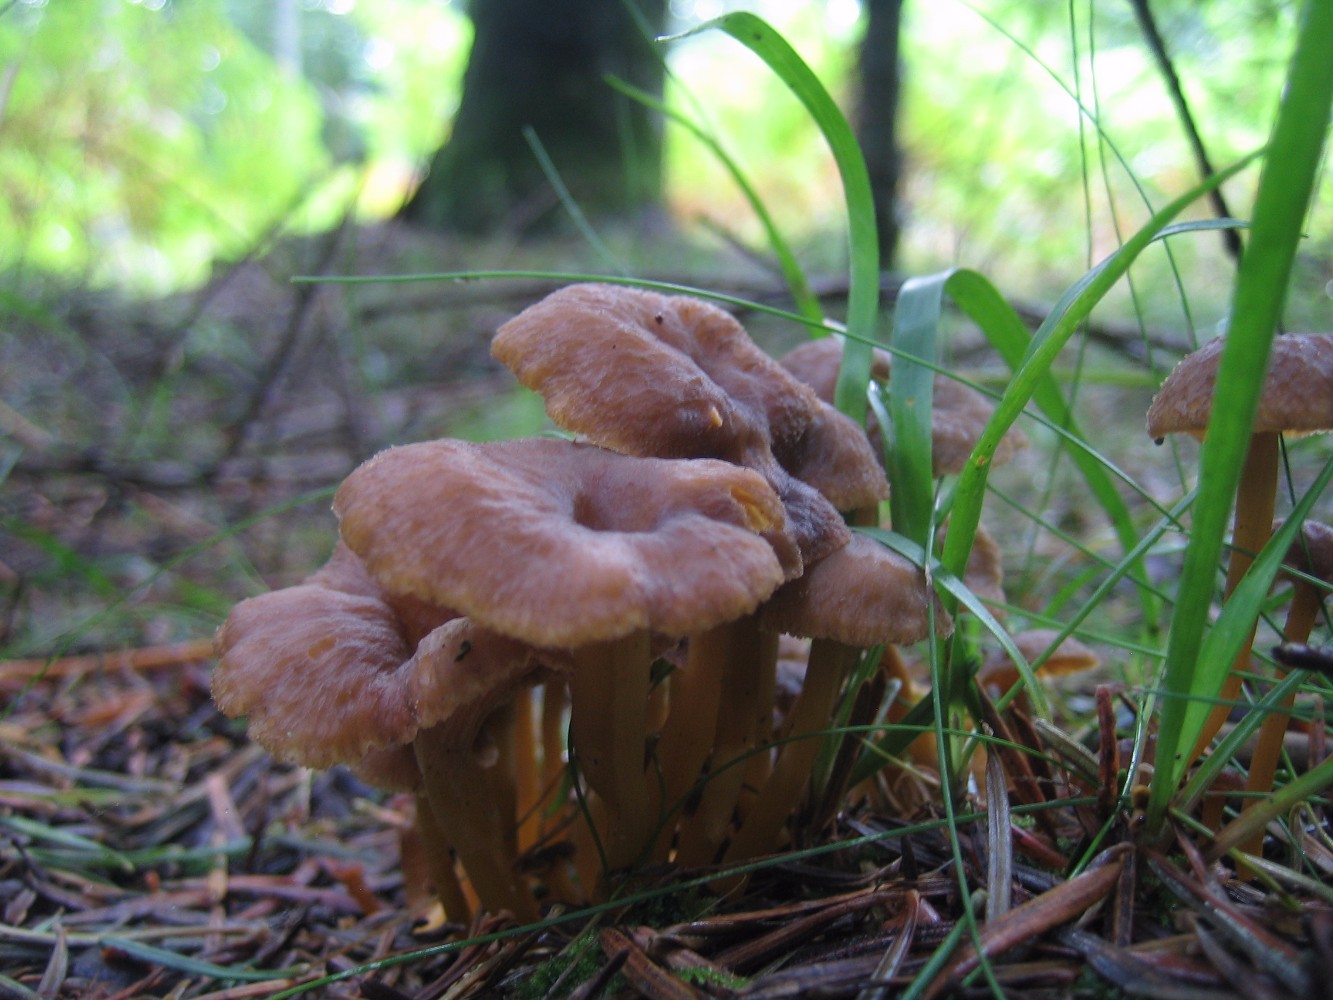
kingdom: Fungi
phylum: Basidiomycota
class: Agaricomycetes
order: Cantharellales
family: Hydnaceae
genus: Craterellus
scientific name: Craterellus tubaeformis
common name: tragt-kantarel
